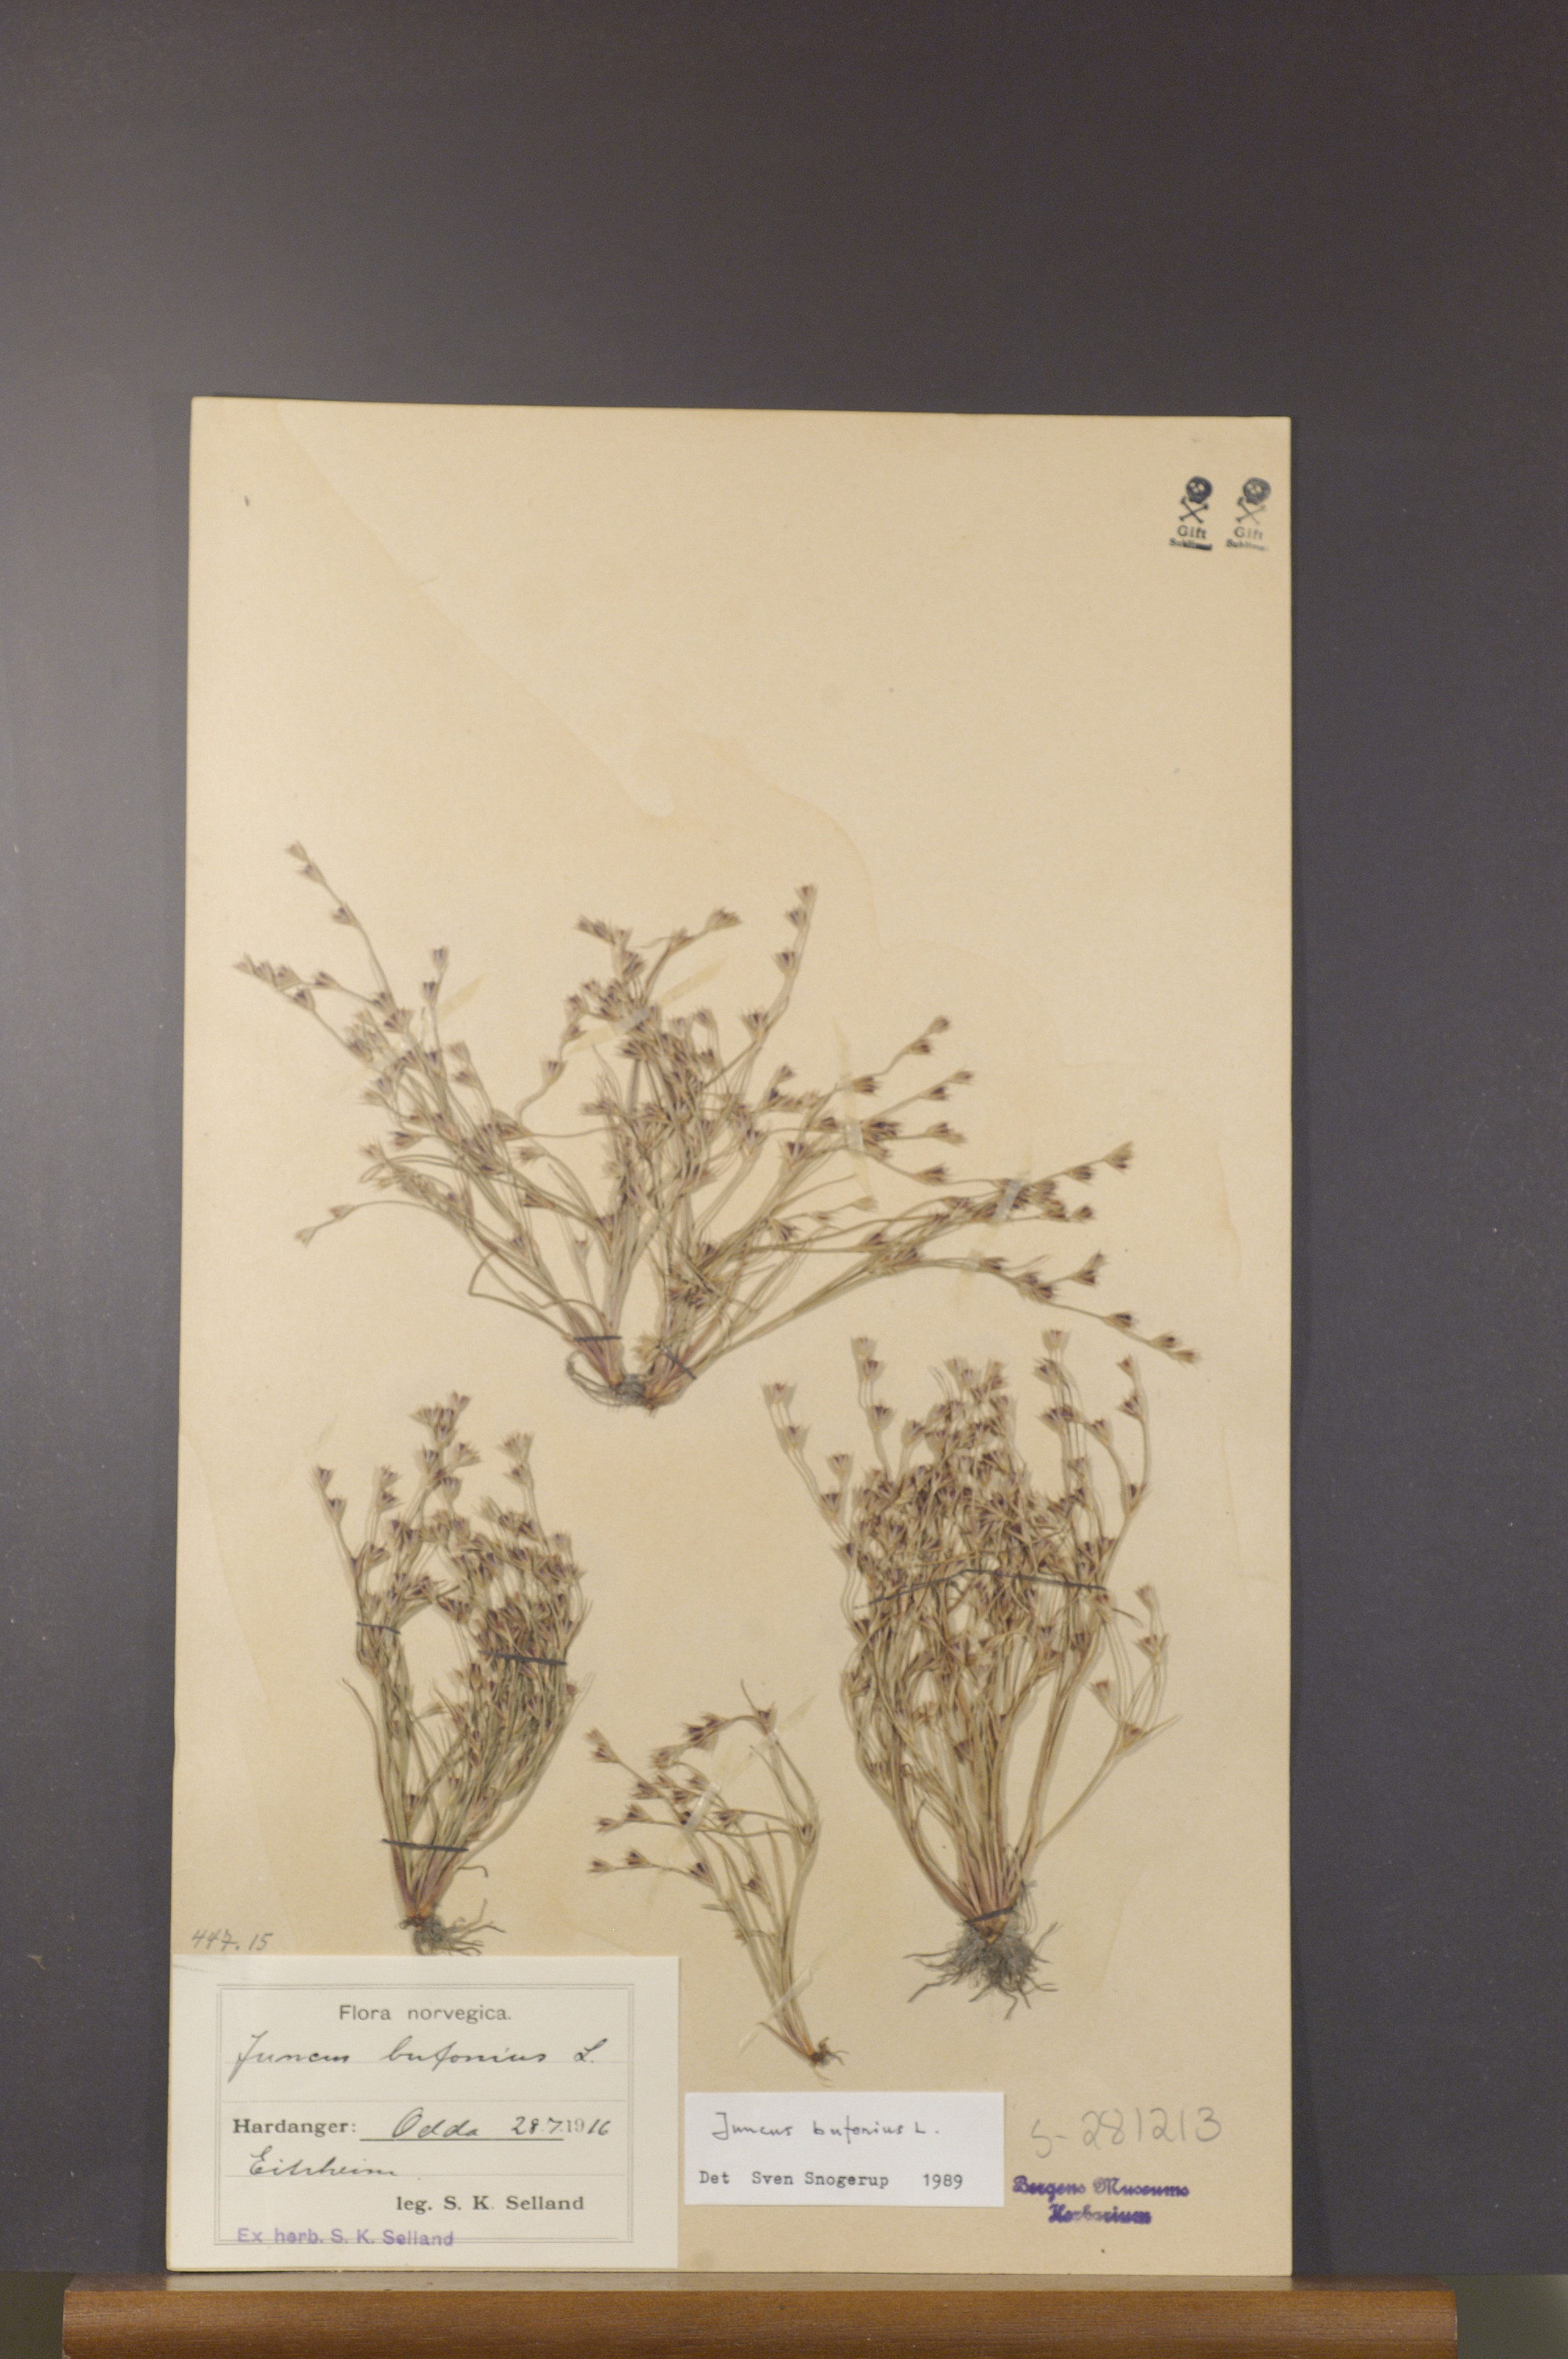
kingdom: Plantae
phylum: Tracheophyta
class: Liliopsida
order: Poales
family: Juncaceae
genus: Juncus
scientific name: Juncus bufonius
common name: Toad rush
